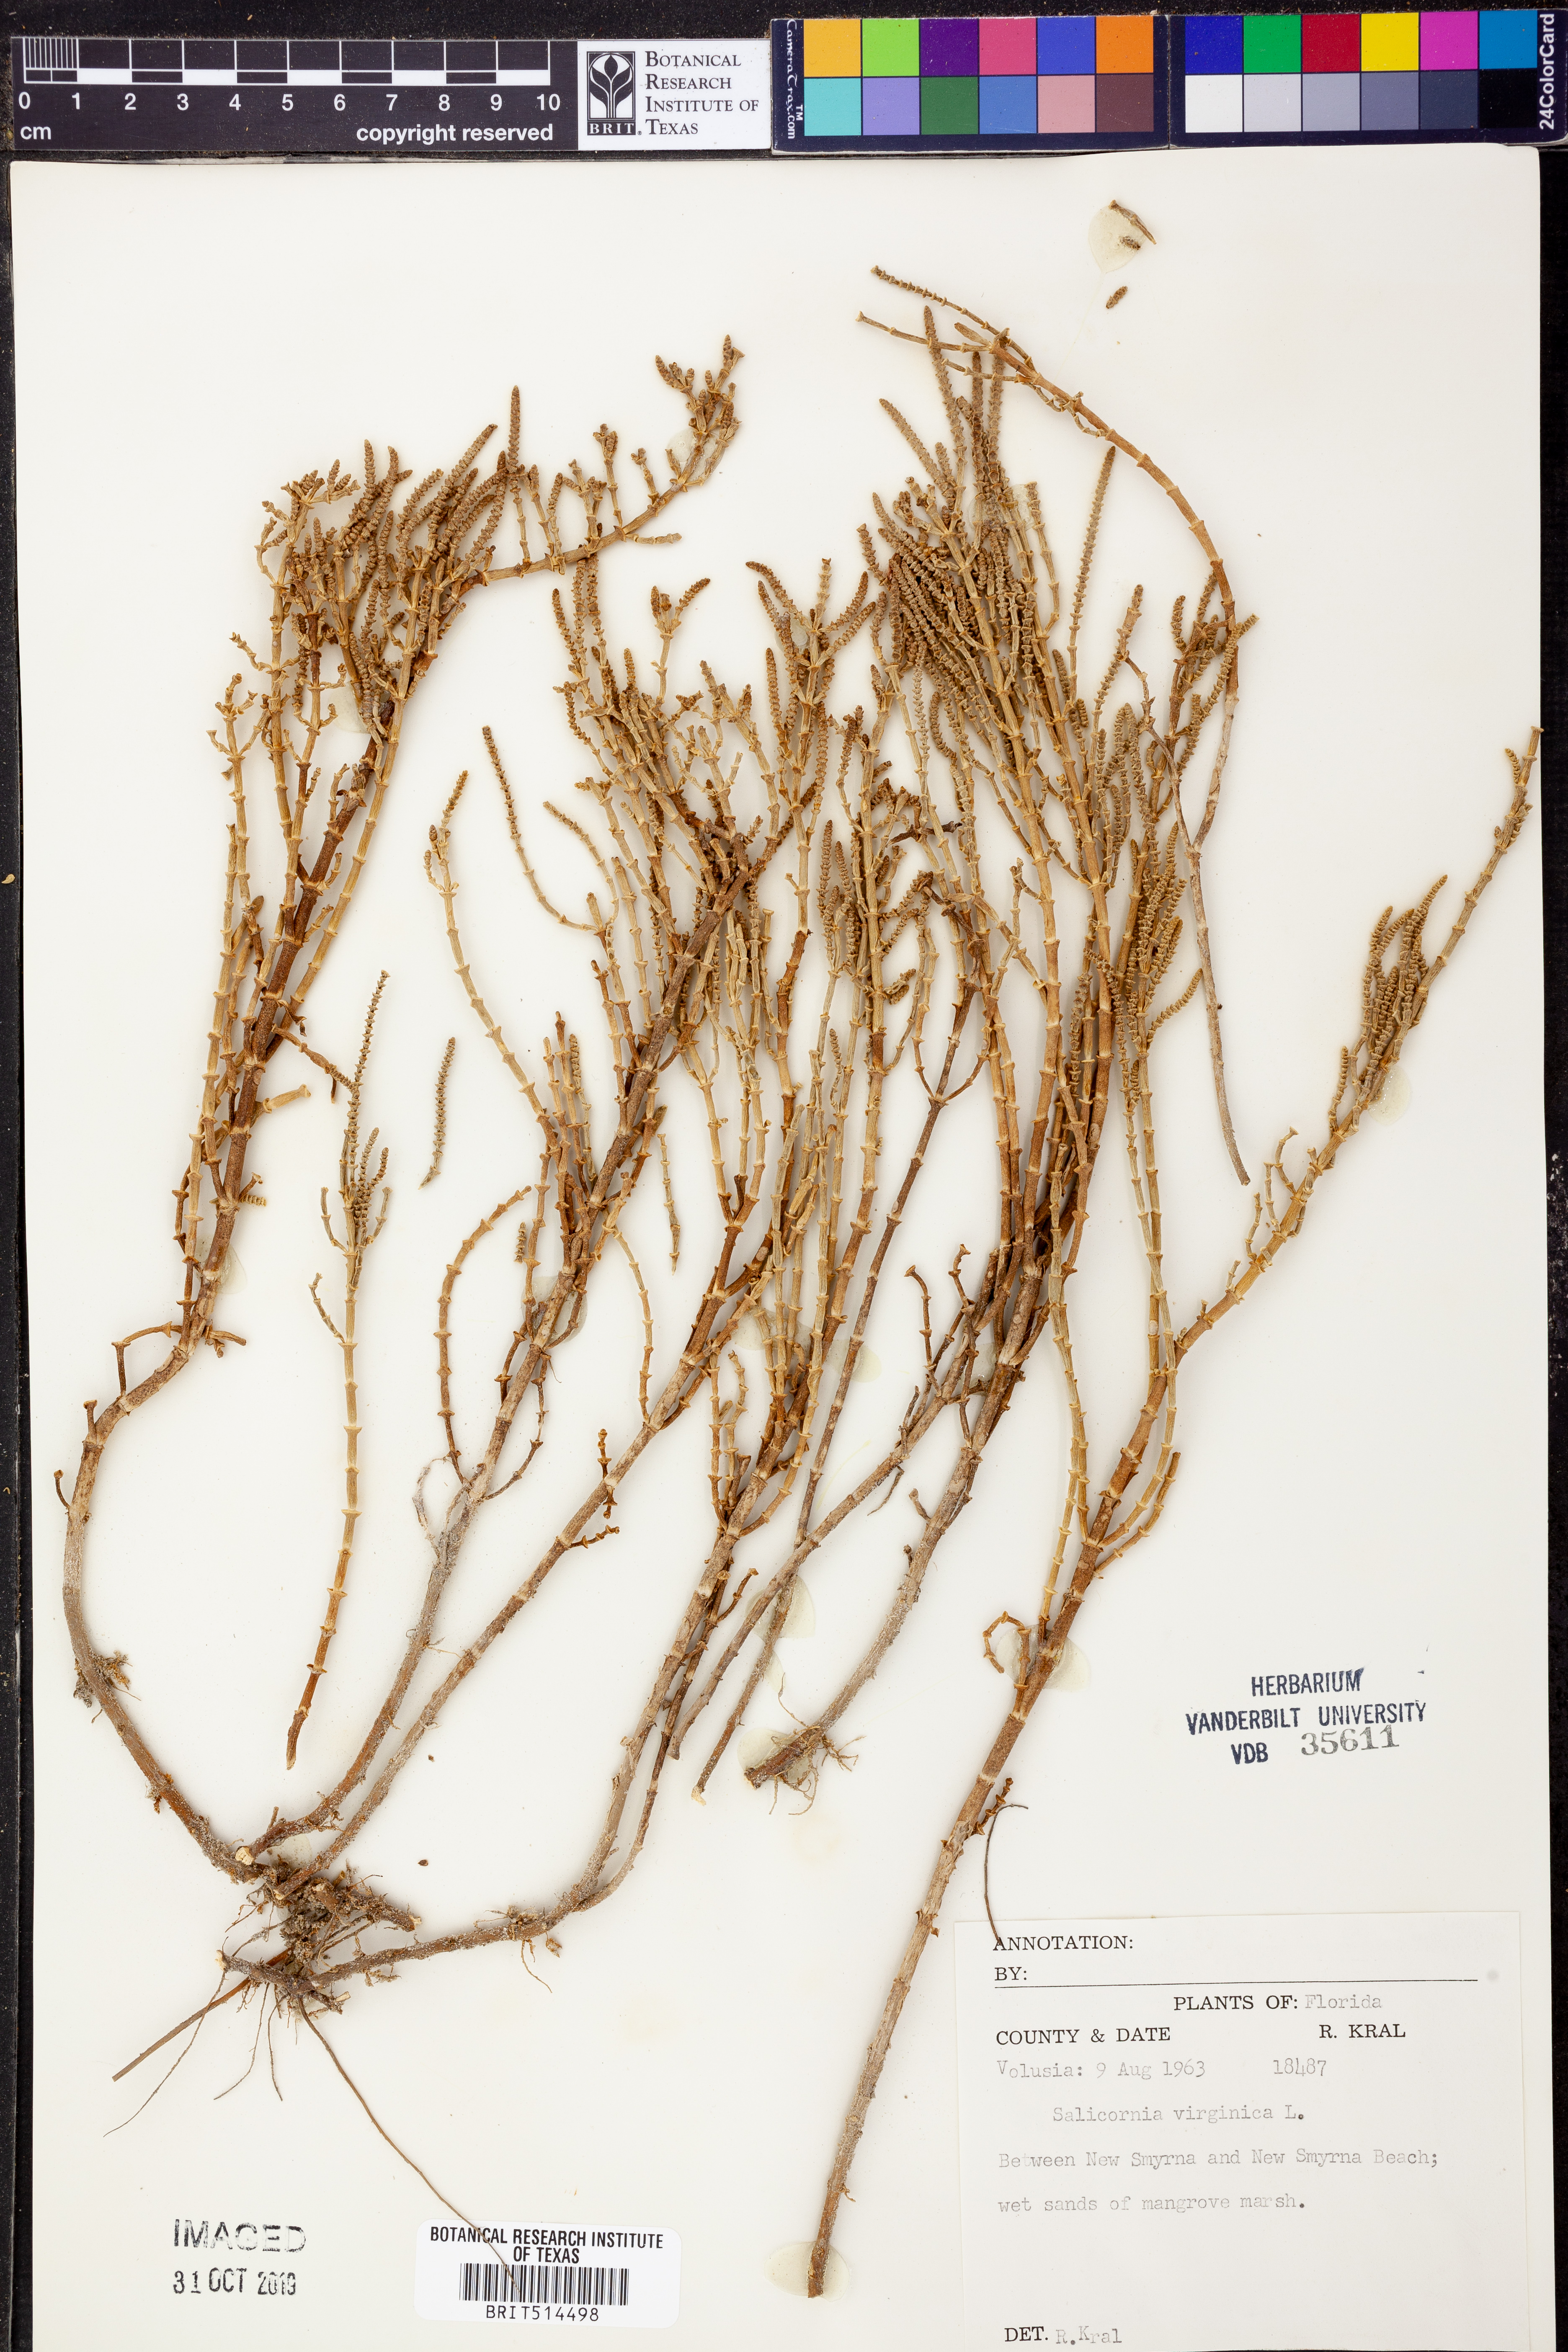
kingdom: Plantae
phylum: Tracheophyta
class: Magnoliopsida
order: Caryophyllales
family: Amaranthaceae
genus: Salicornia
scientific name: Salicornia virginica
